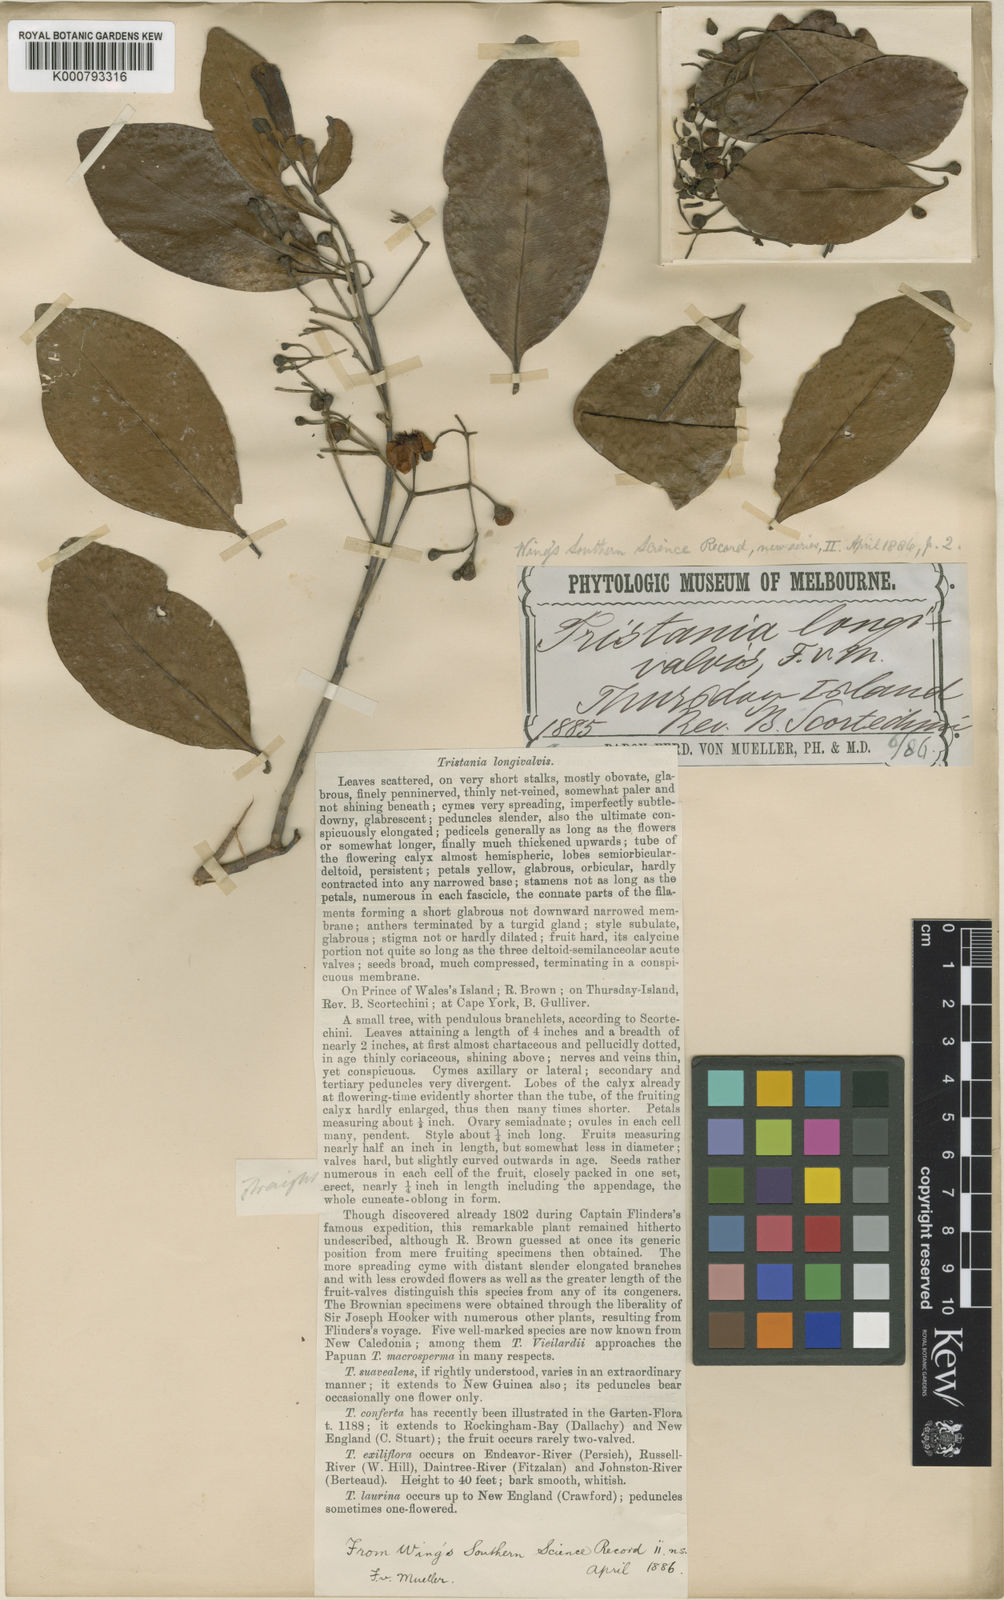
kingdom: Plantae
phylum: Tracheophyta
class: Magnoliopsida
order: Myrtales
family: Myrtaceae
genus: Welchiodendron
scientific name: Welchiodendron longivalve
